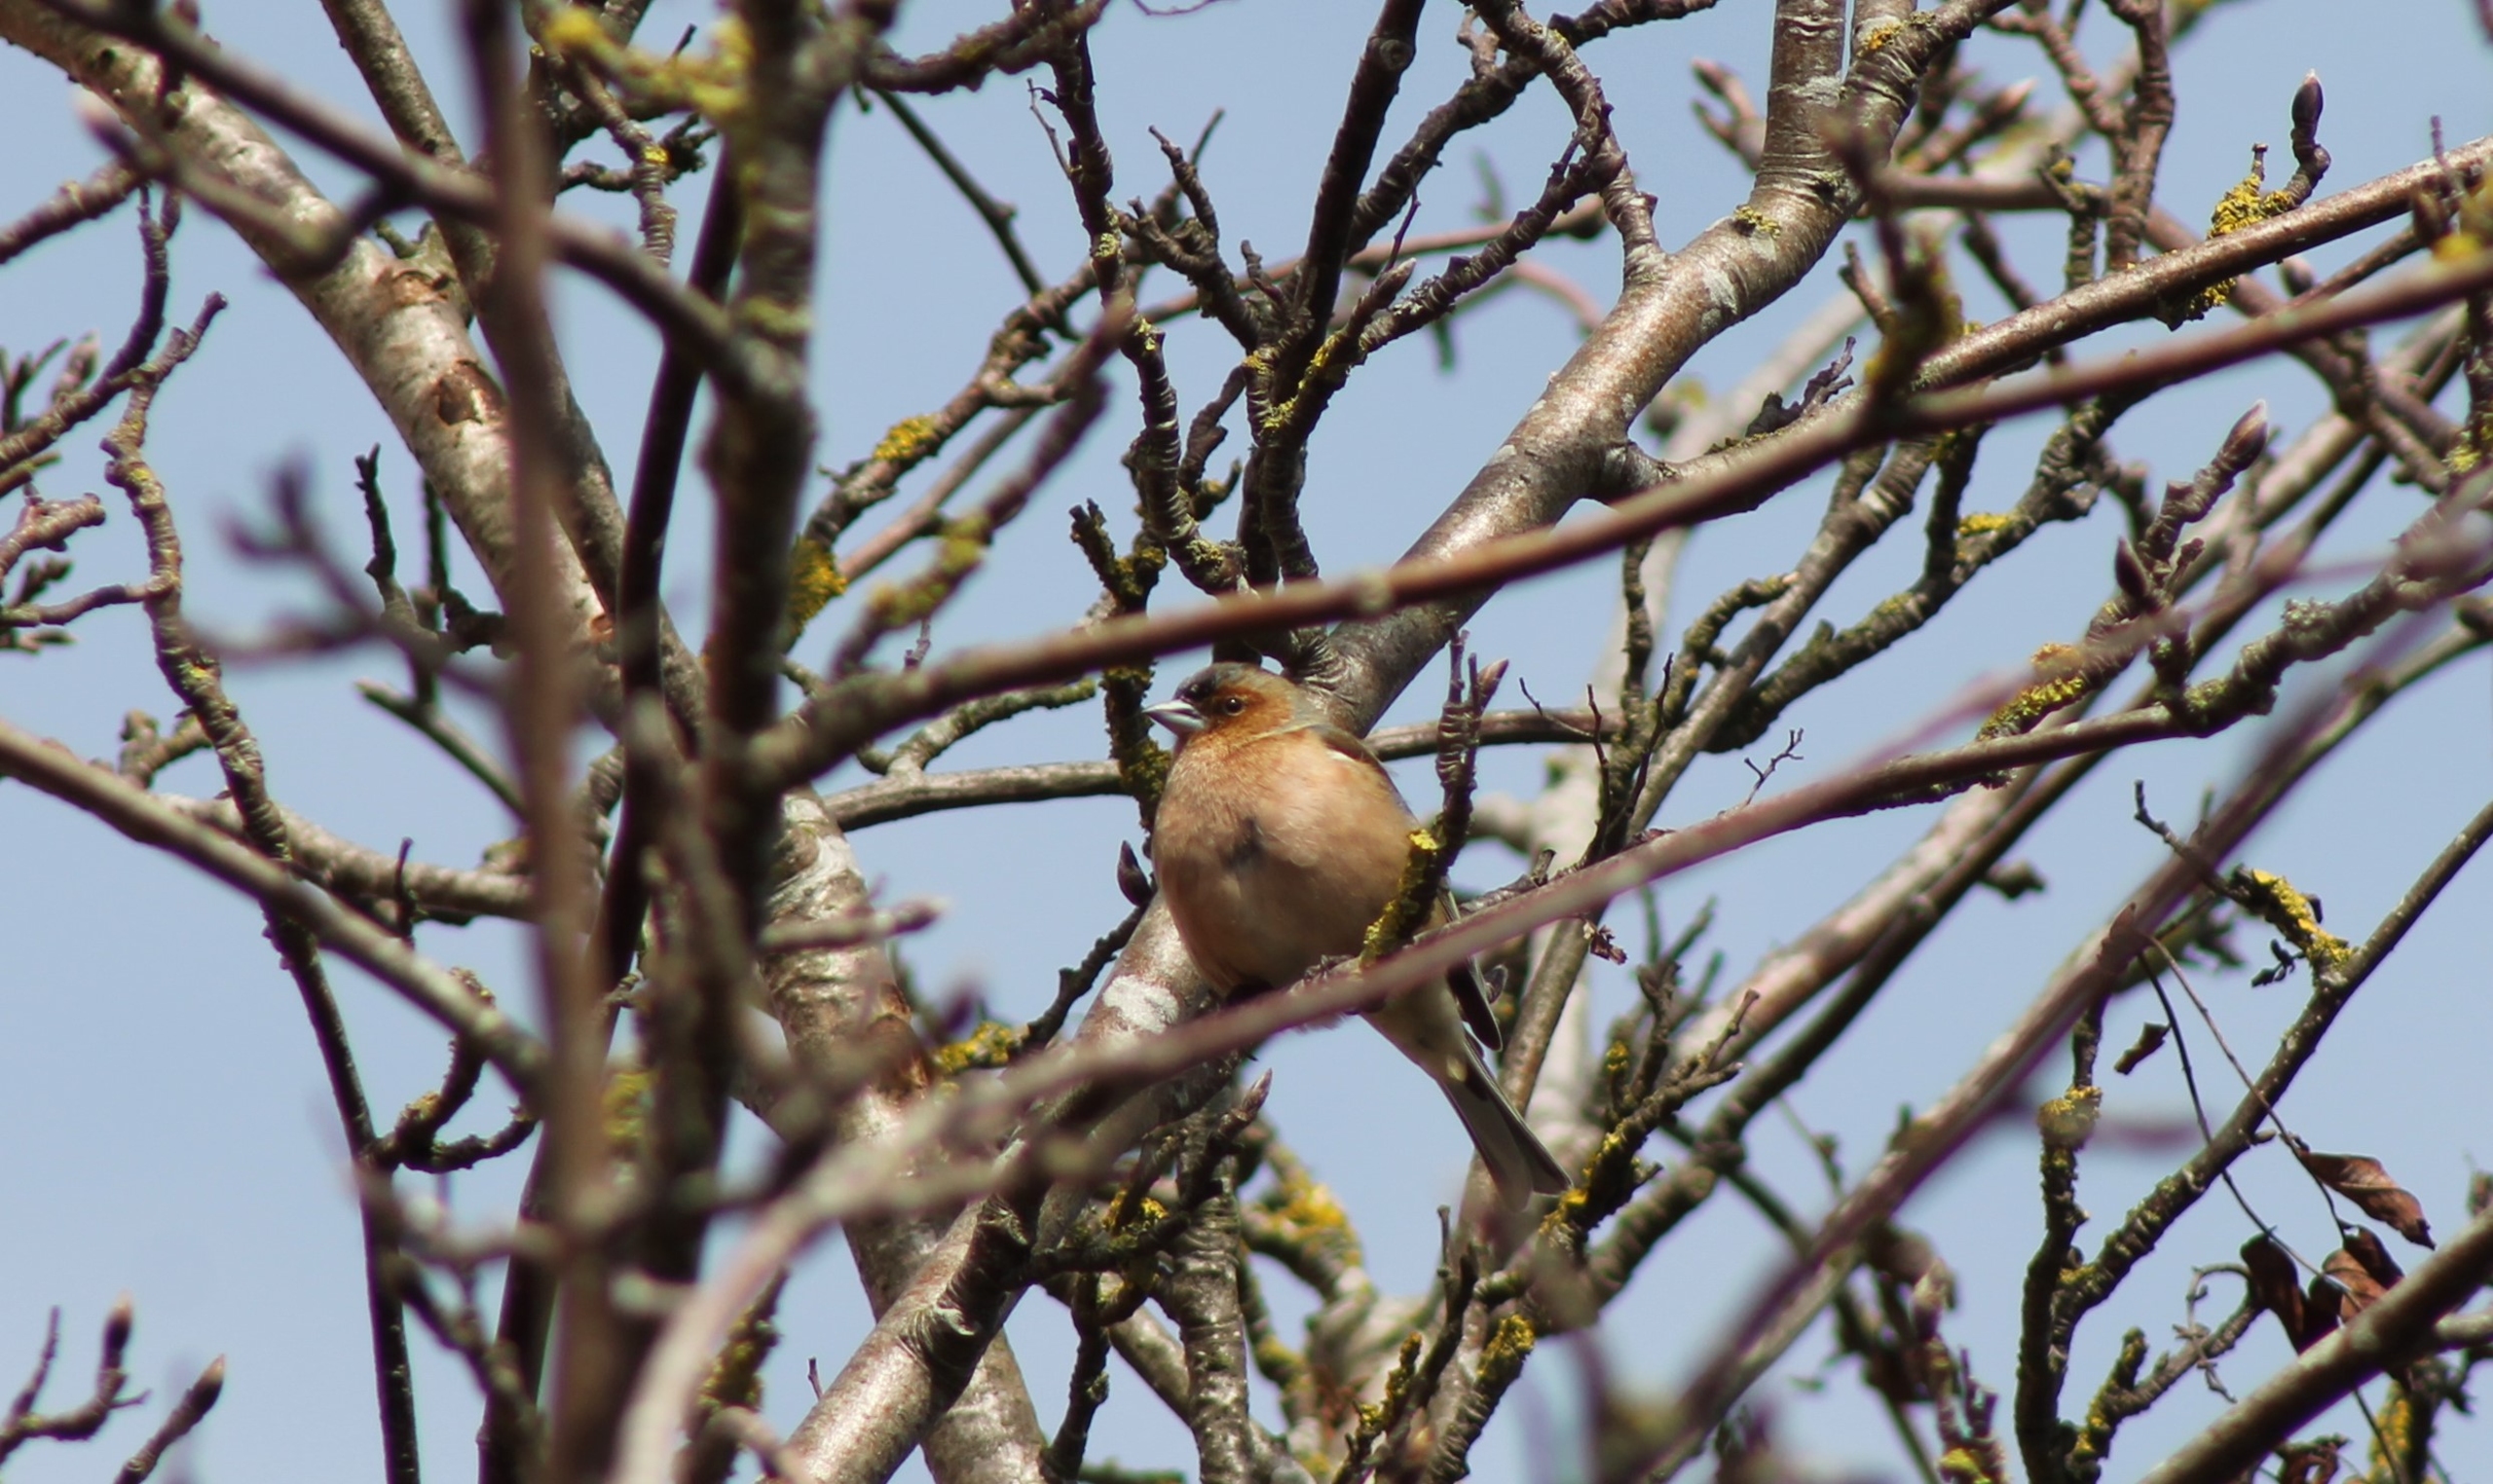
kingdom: Animalia
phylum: Chordata
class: Aves
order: Passeriformes
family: Fringillidae
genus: Fringilla
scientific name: Fringilla coelebs
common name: Bogfinke
